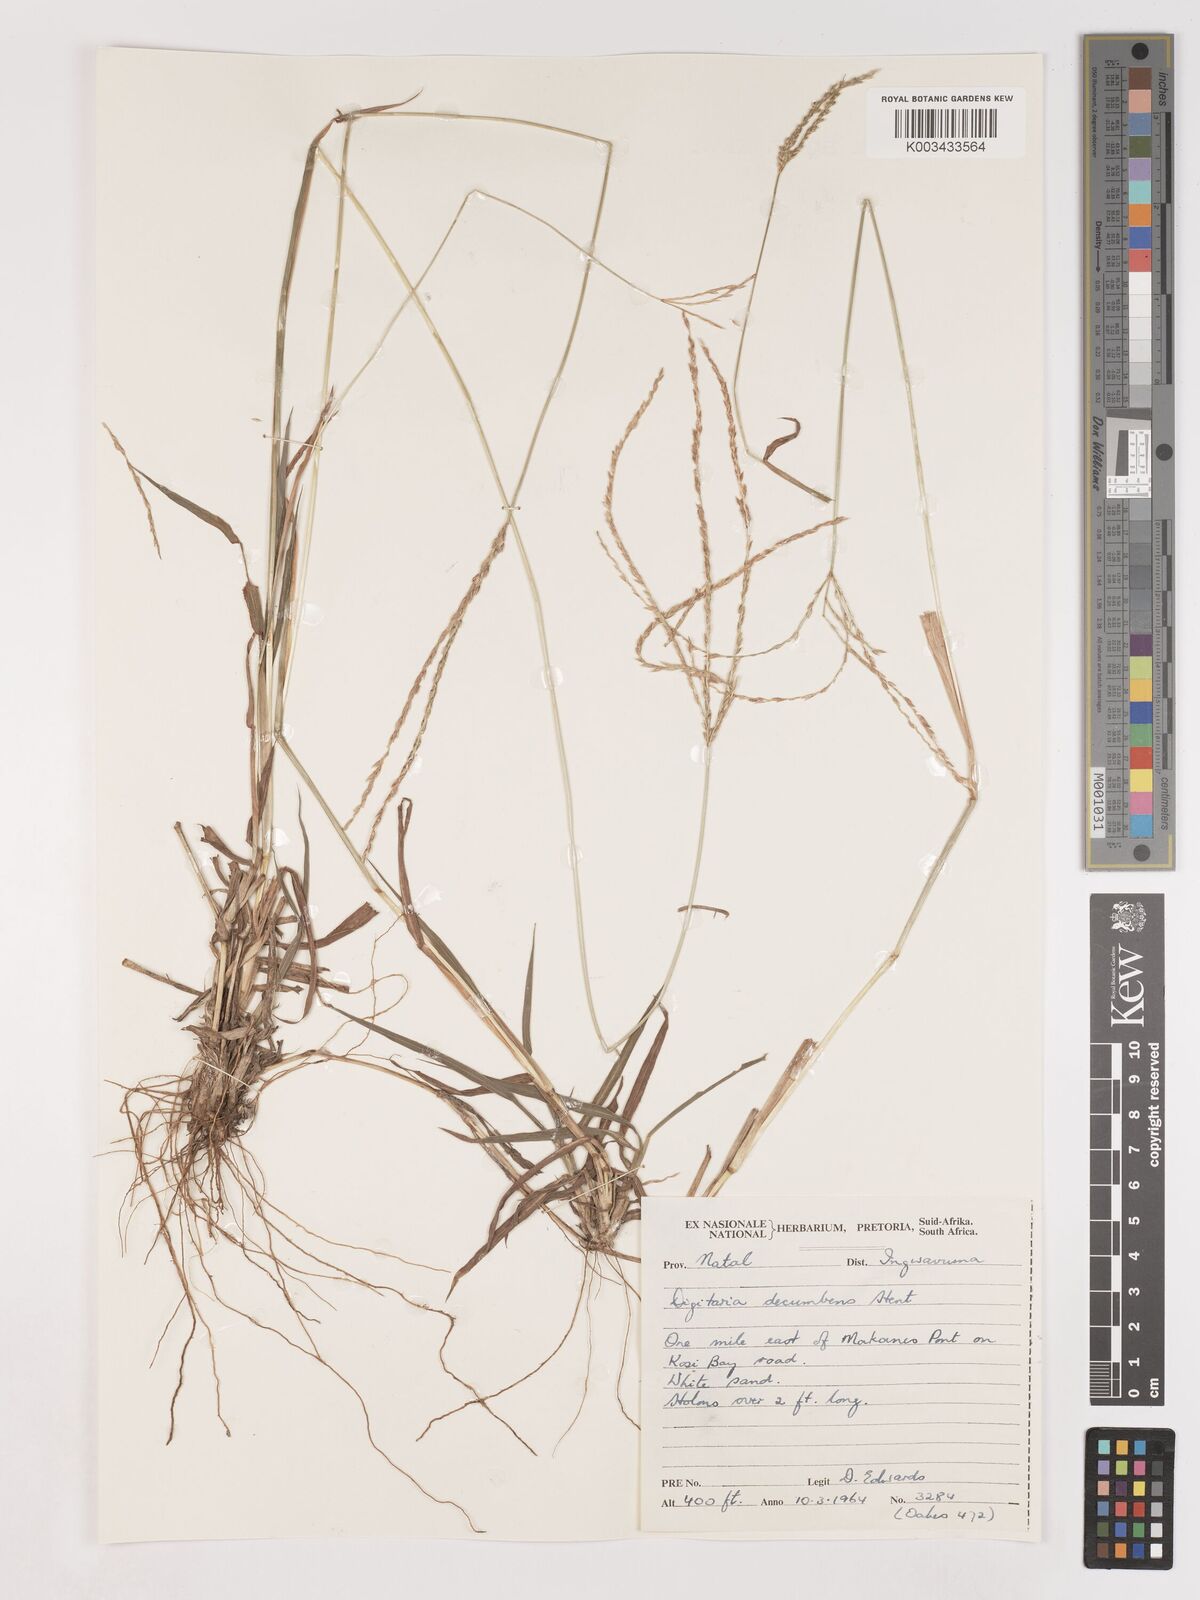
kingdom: Plantae
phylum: Tracheophyta
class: Liliopsida
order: Poales
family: Poaceae
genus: Digitaria
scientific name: Digitaria eriantha
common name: Digitgrass
